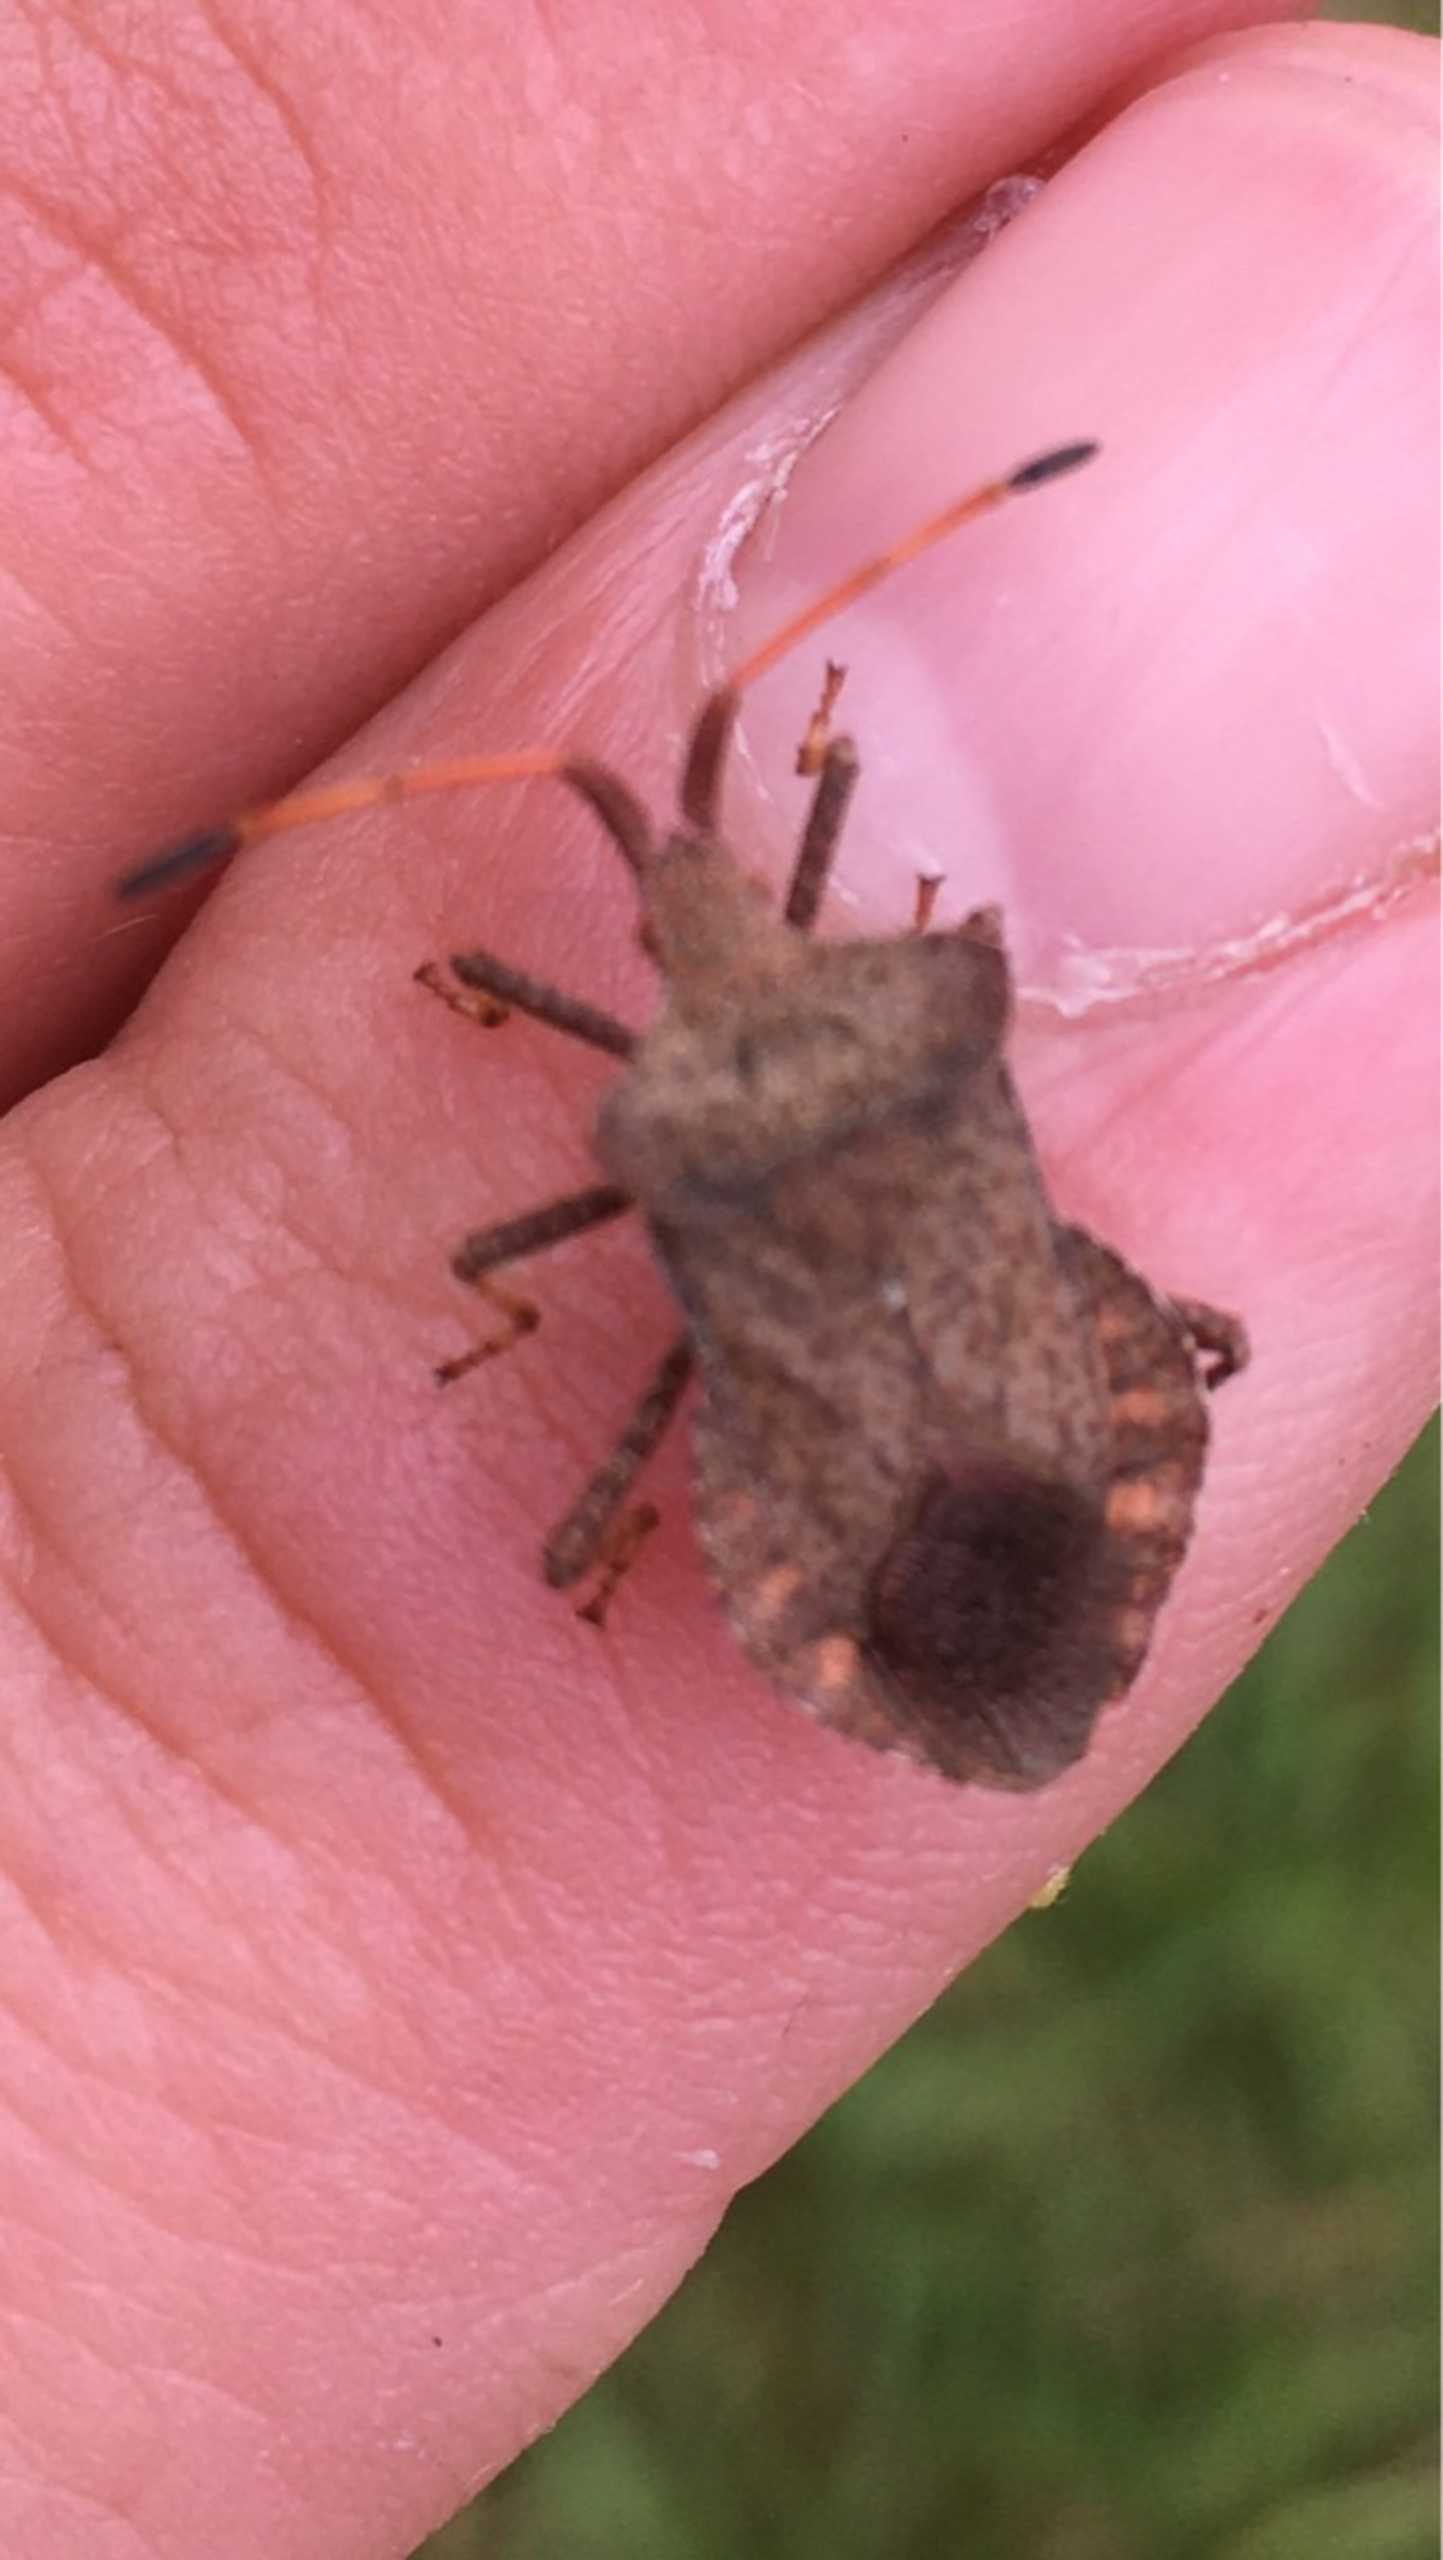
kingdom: Animalia
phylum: Arthropoda
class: Insecta
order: Hemiptera
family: Coreidae
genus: Coreus
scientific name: Coreus marginatus
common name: Skræppetæge
